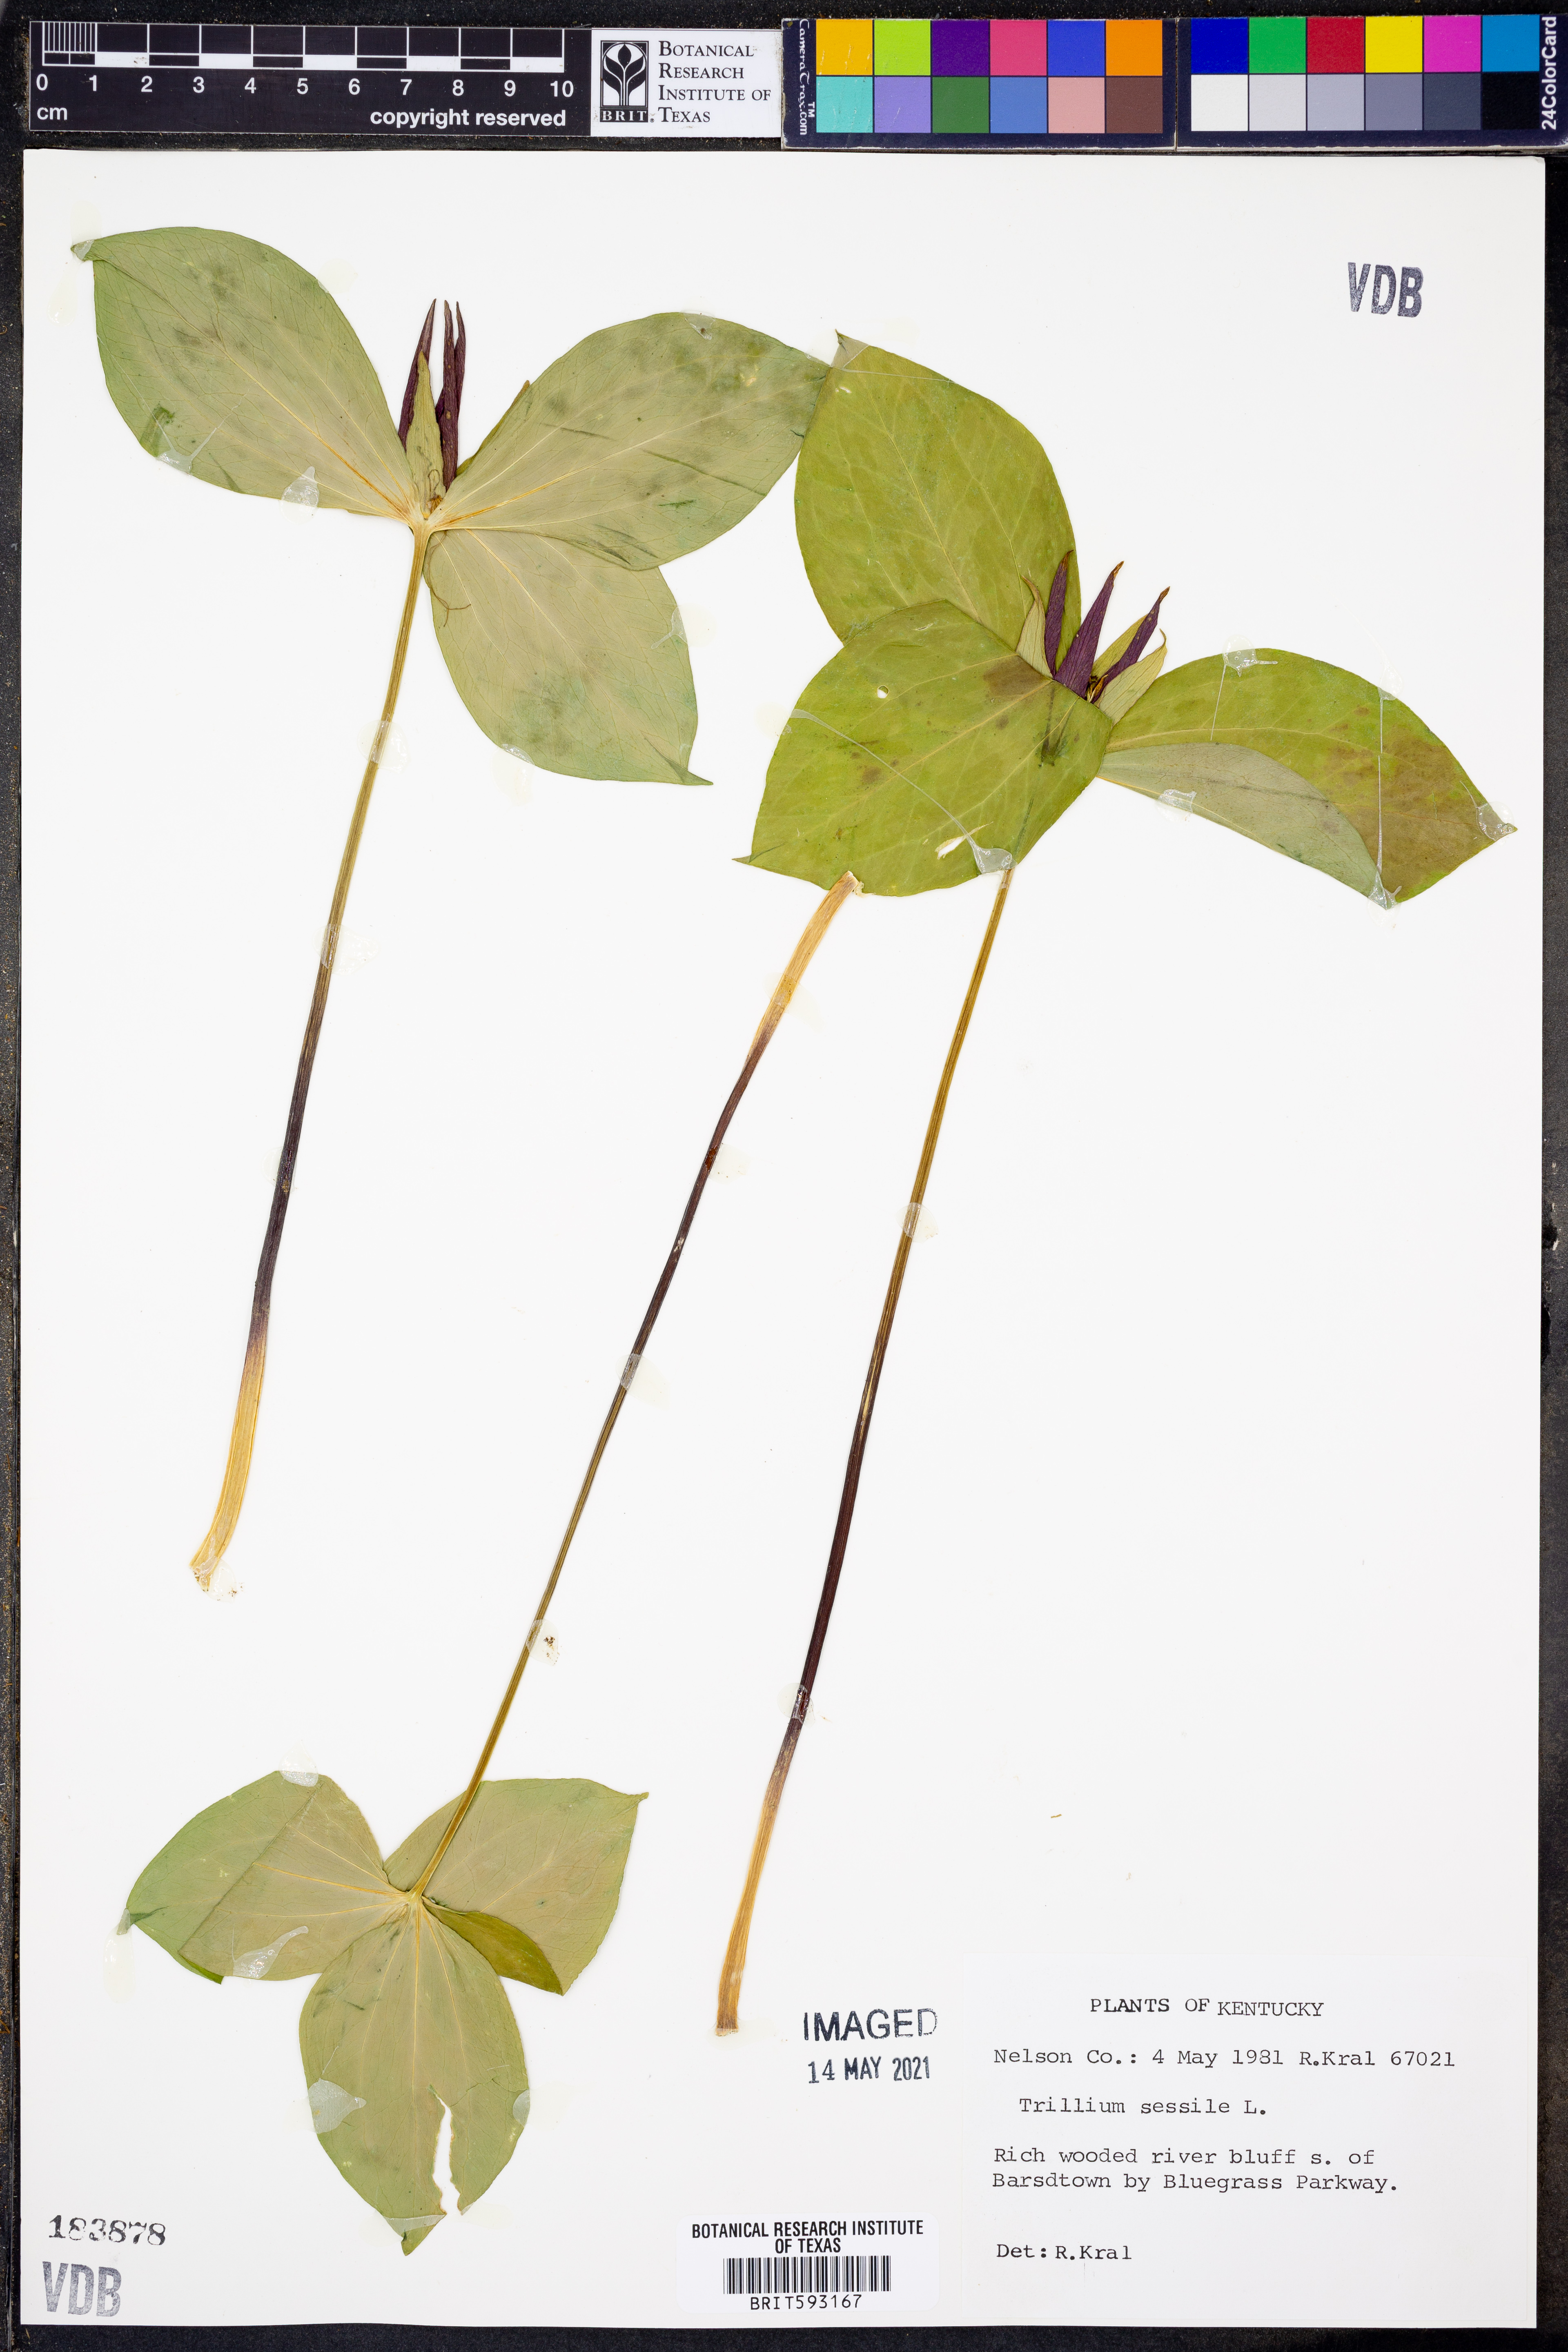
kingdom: Plantae
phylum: Tracheophyta
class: Liliopsida
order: Liliales
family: Melanthiaceae
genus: Trillium
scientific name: Trillium sessile
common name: Sessile trillium
